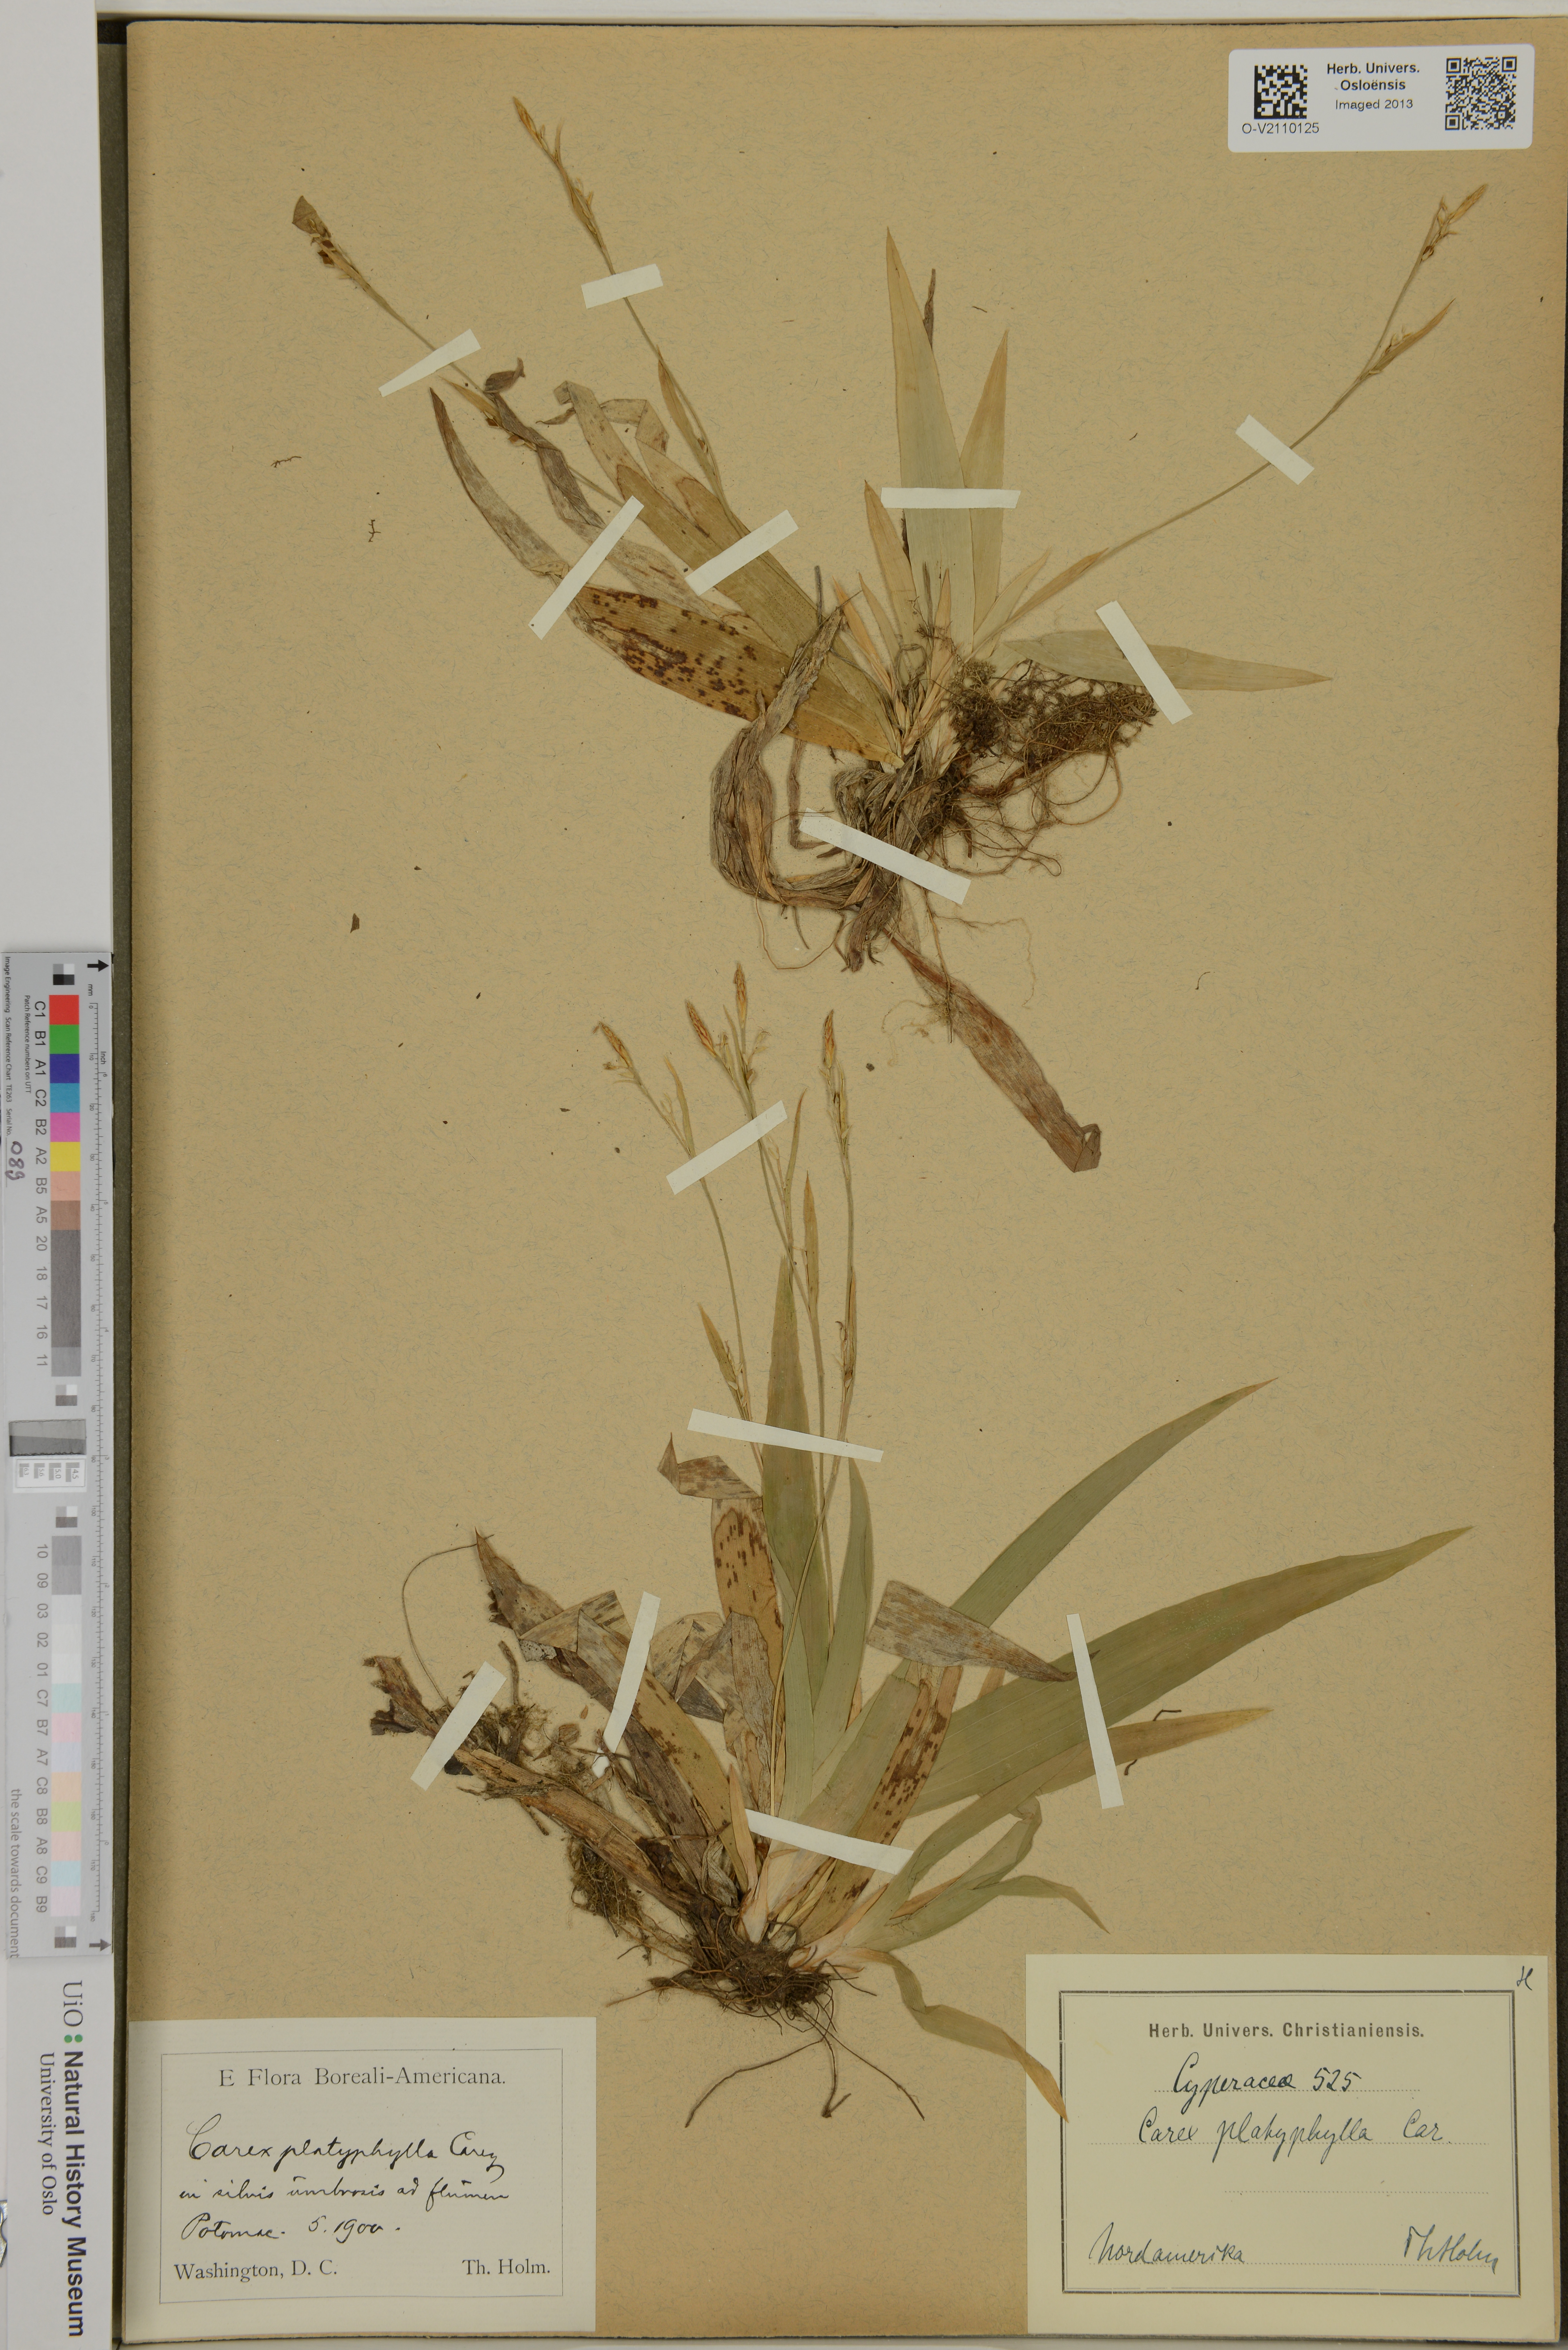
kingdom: Plantae
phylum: Tracheophyta
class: Liliopsida
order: Poales
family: Cyperaceae
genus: Carex
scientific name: Carex platyphylla
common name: Broad-leaved sedge
